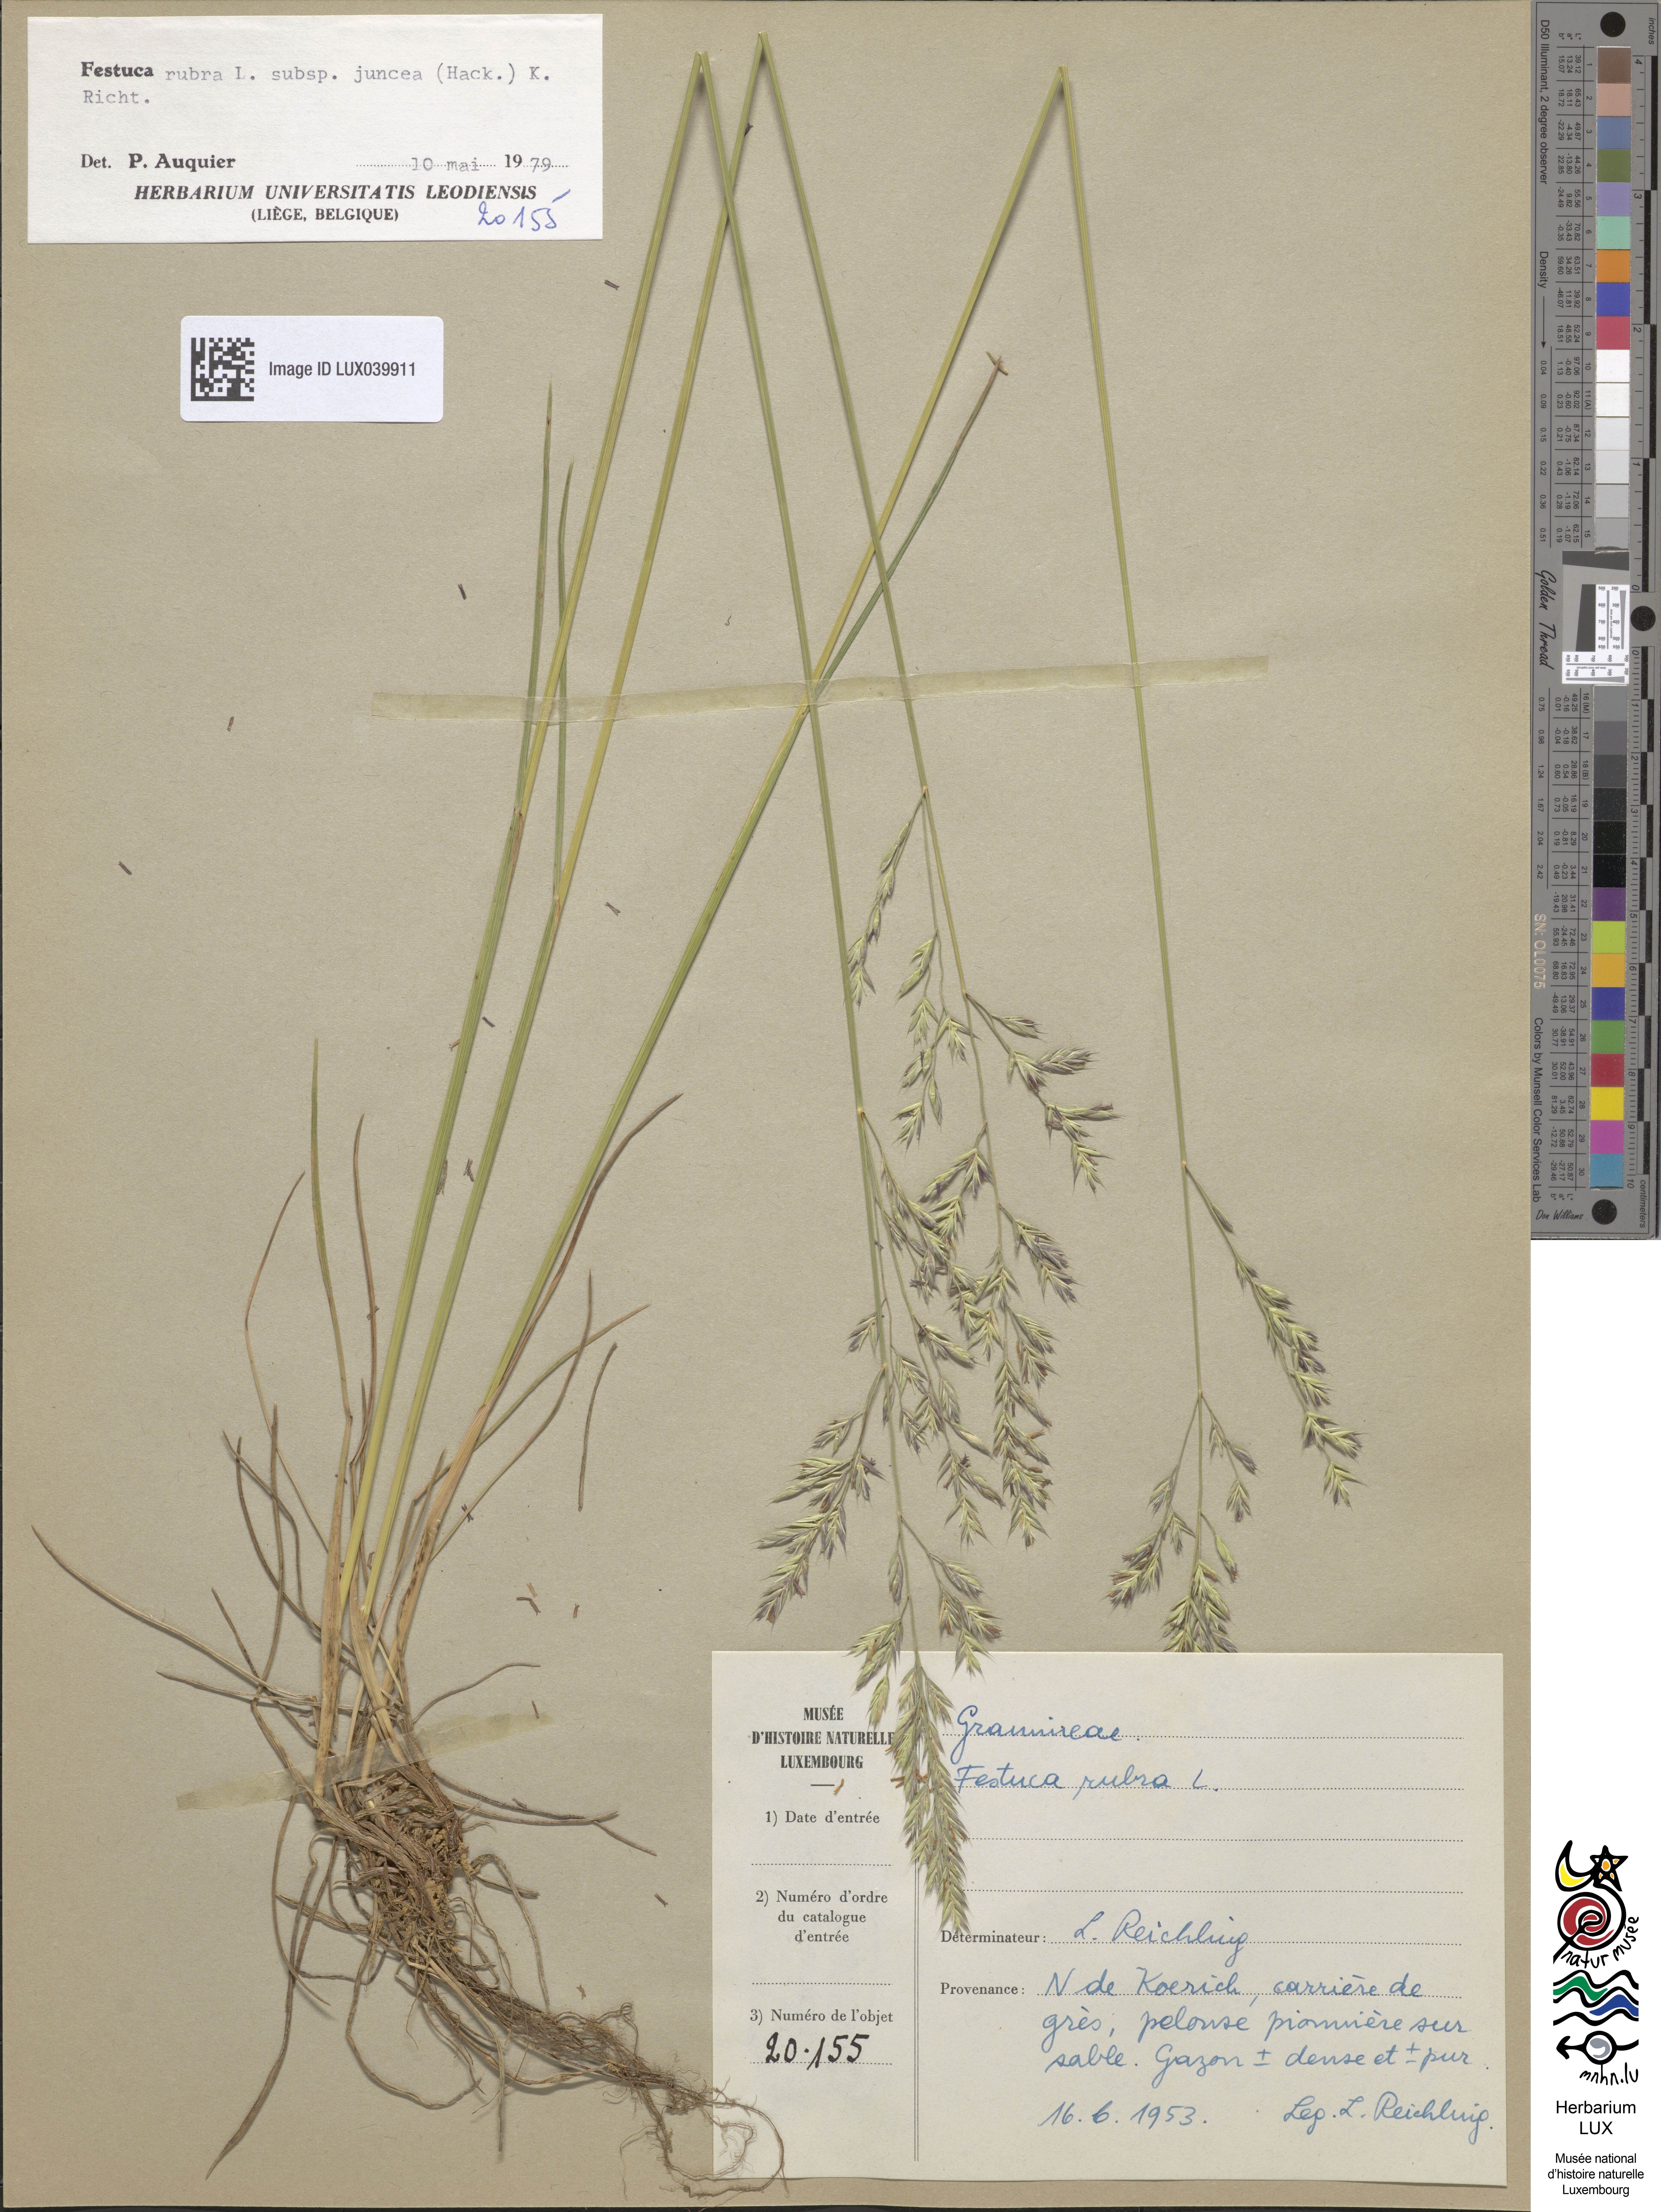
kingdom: Plantae
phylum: Tracheophyta
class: Liliopsida
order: Poales
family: Poaceae
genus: Festuca
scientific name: Festuca rubra
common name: Red fescue
